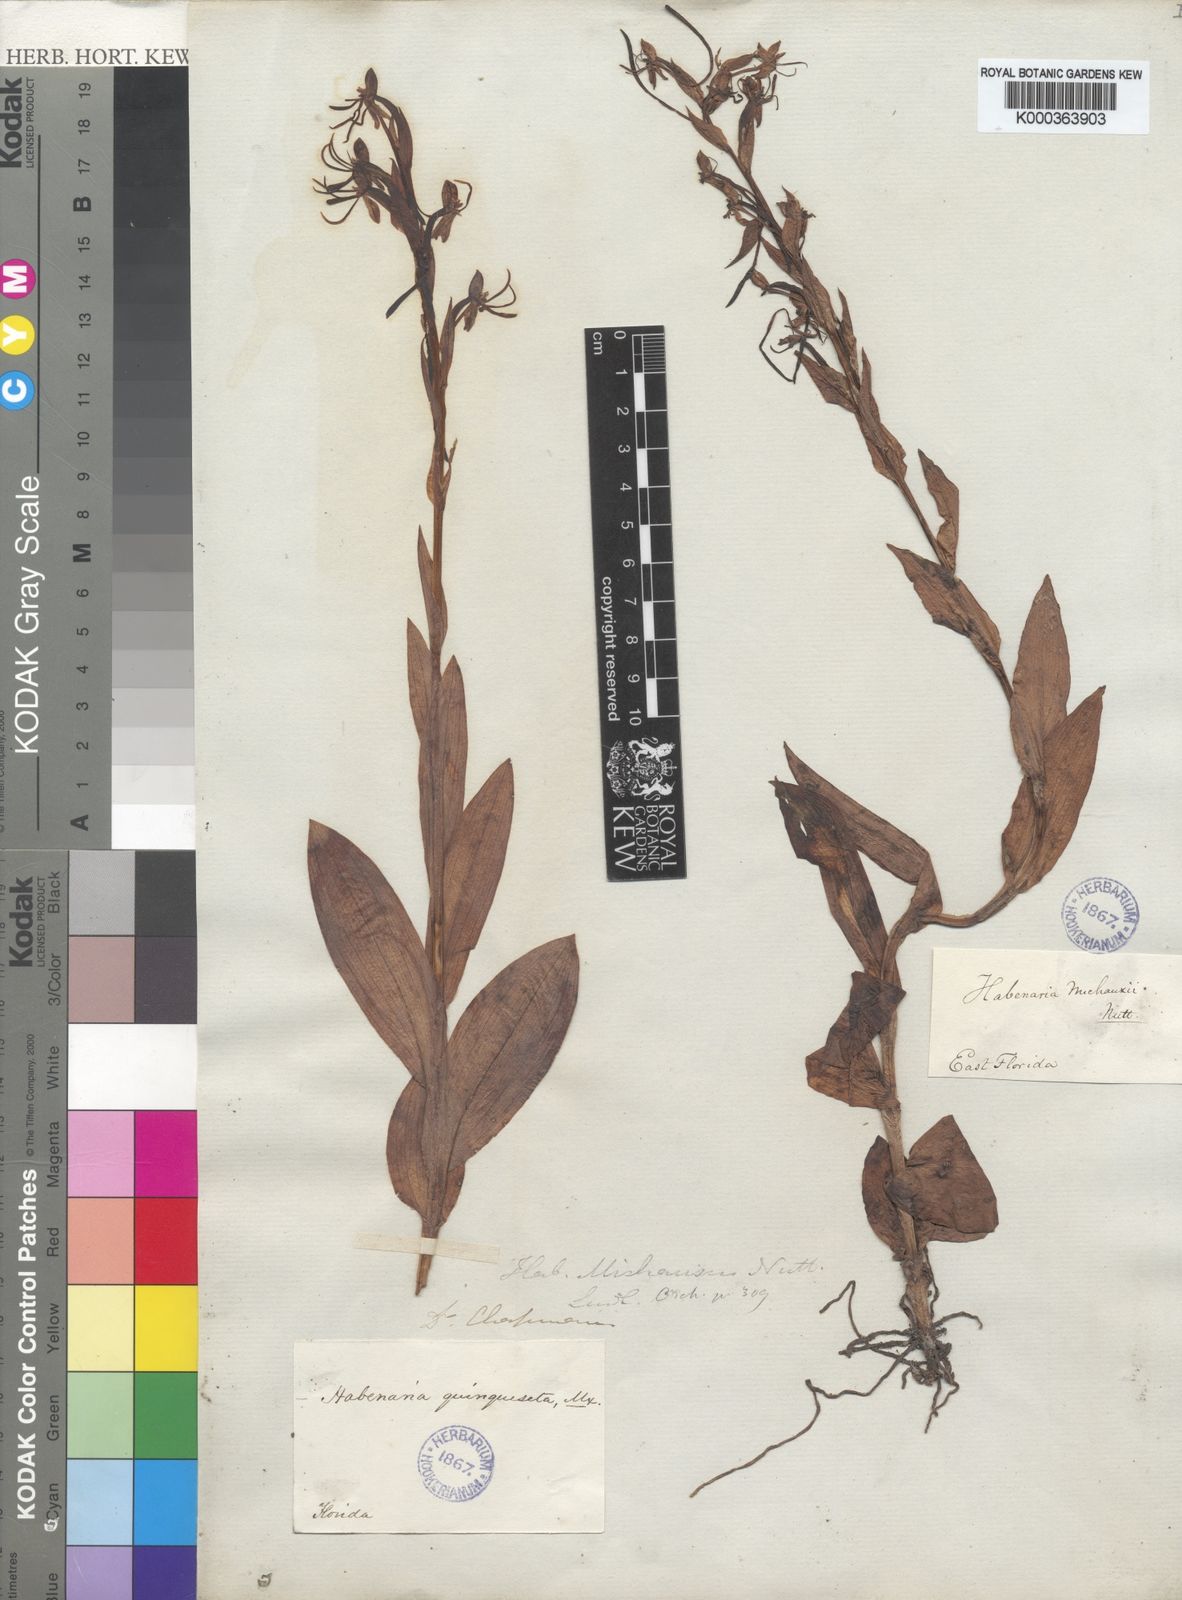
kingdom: Plantae
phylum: Tracheophyta
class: Liliopsida
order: Asparagales
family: Orchidaceae
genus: Habenaria
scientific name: Habenaria
